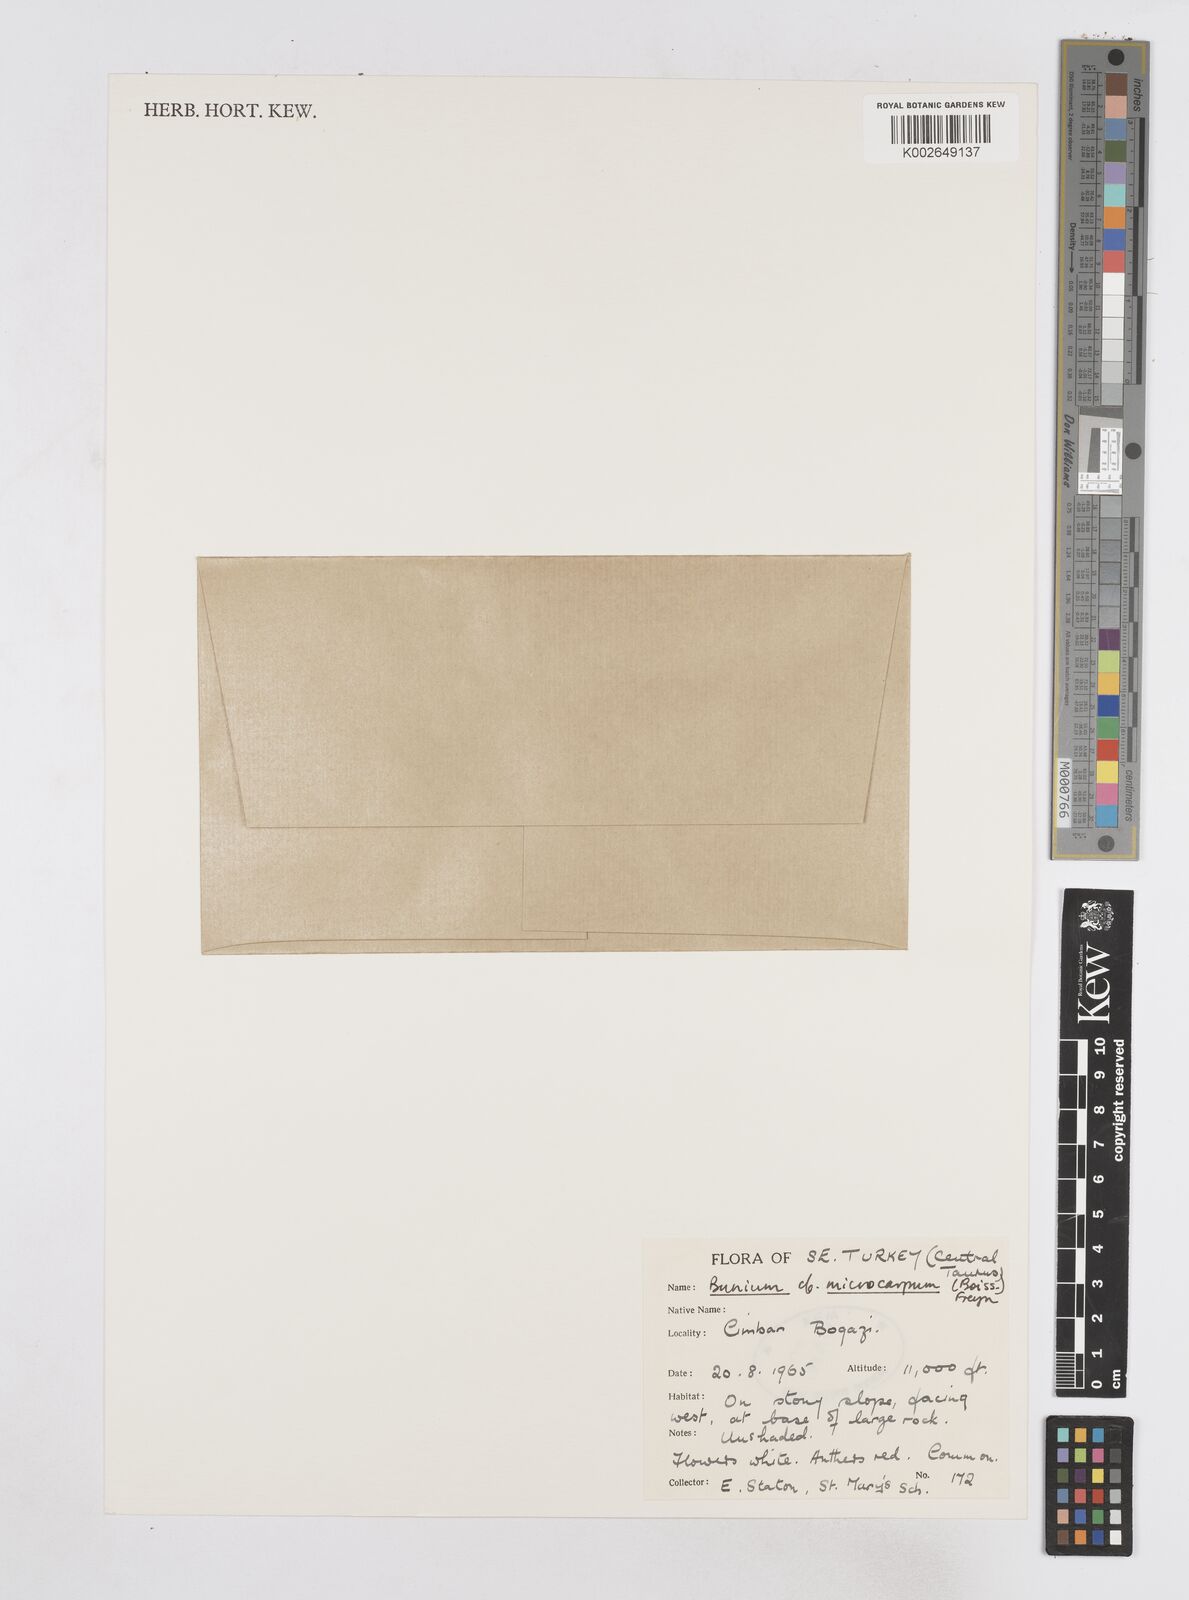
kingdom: Plantae
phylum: Tracheophyta
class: Magnoliopsida
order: Apiales
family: Apiaceae
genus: Bunium
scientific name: Bunium microcarpum
